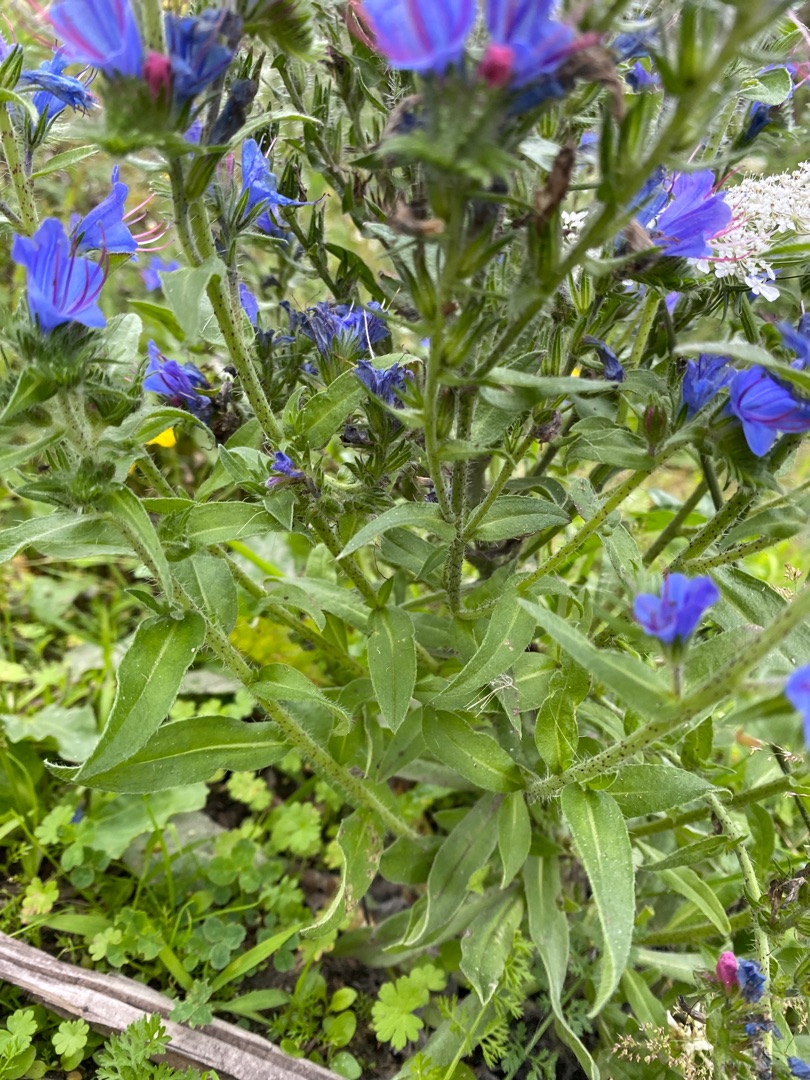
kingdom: Plantae
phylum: Tracheophyta
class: Magnoliopsida
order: Boraginales
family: Boraginaceae
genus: Echium
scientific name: Echium vulgare
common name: Slangehoved
